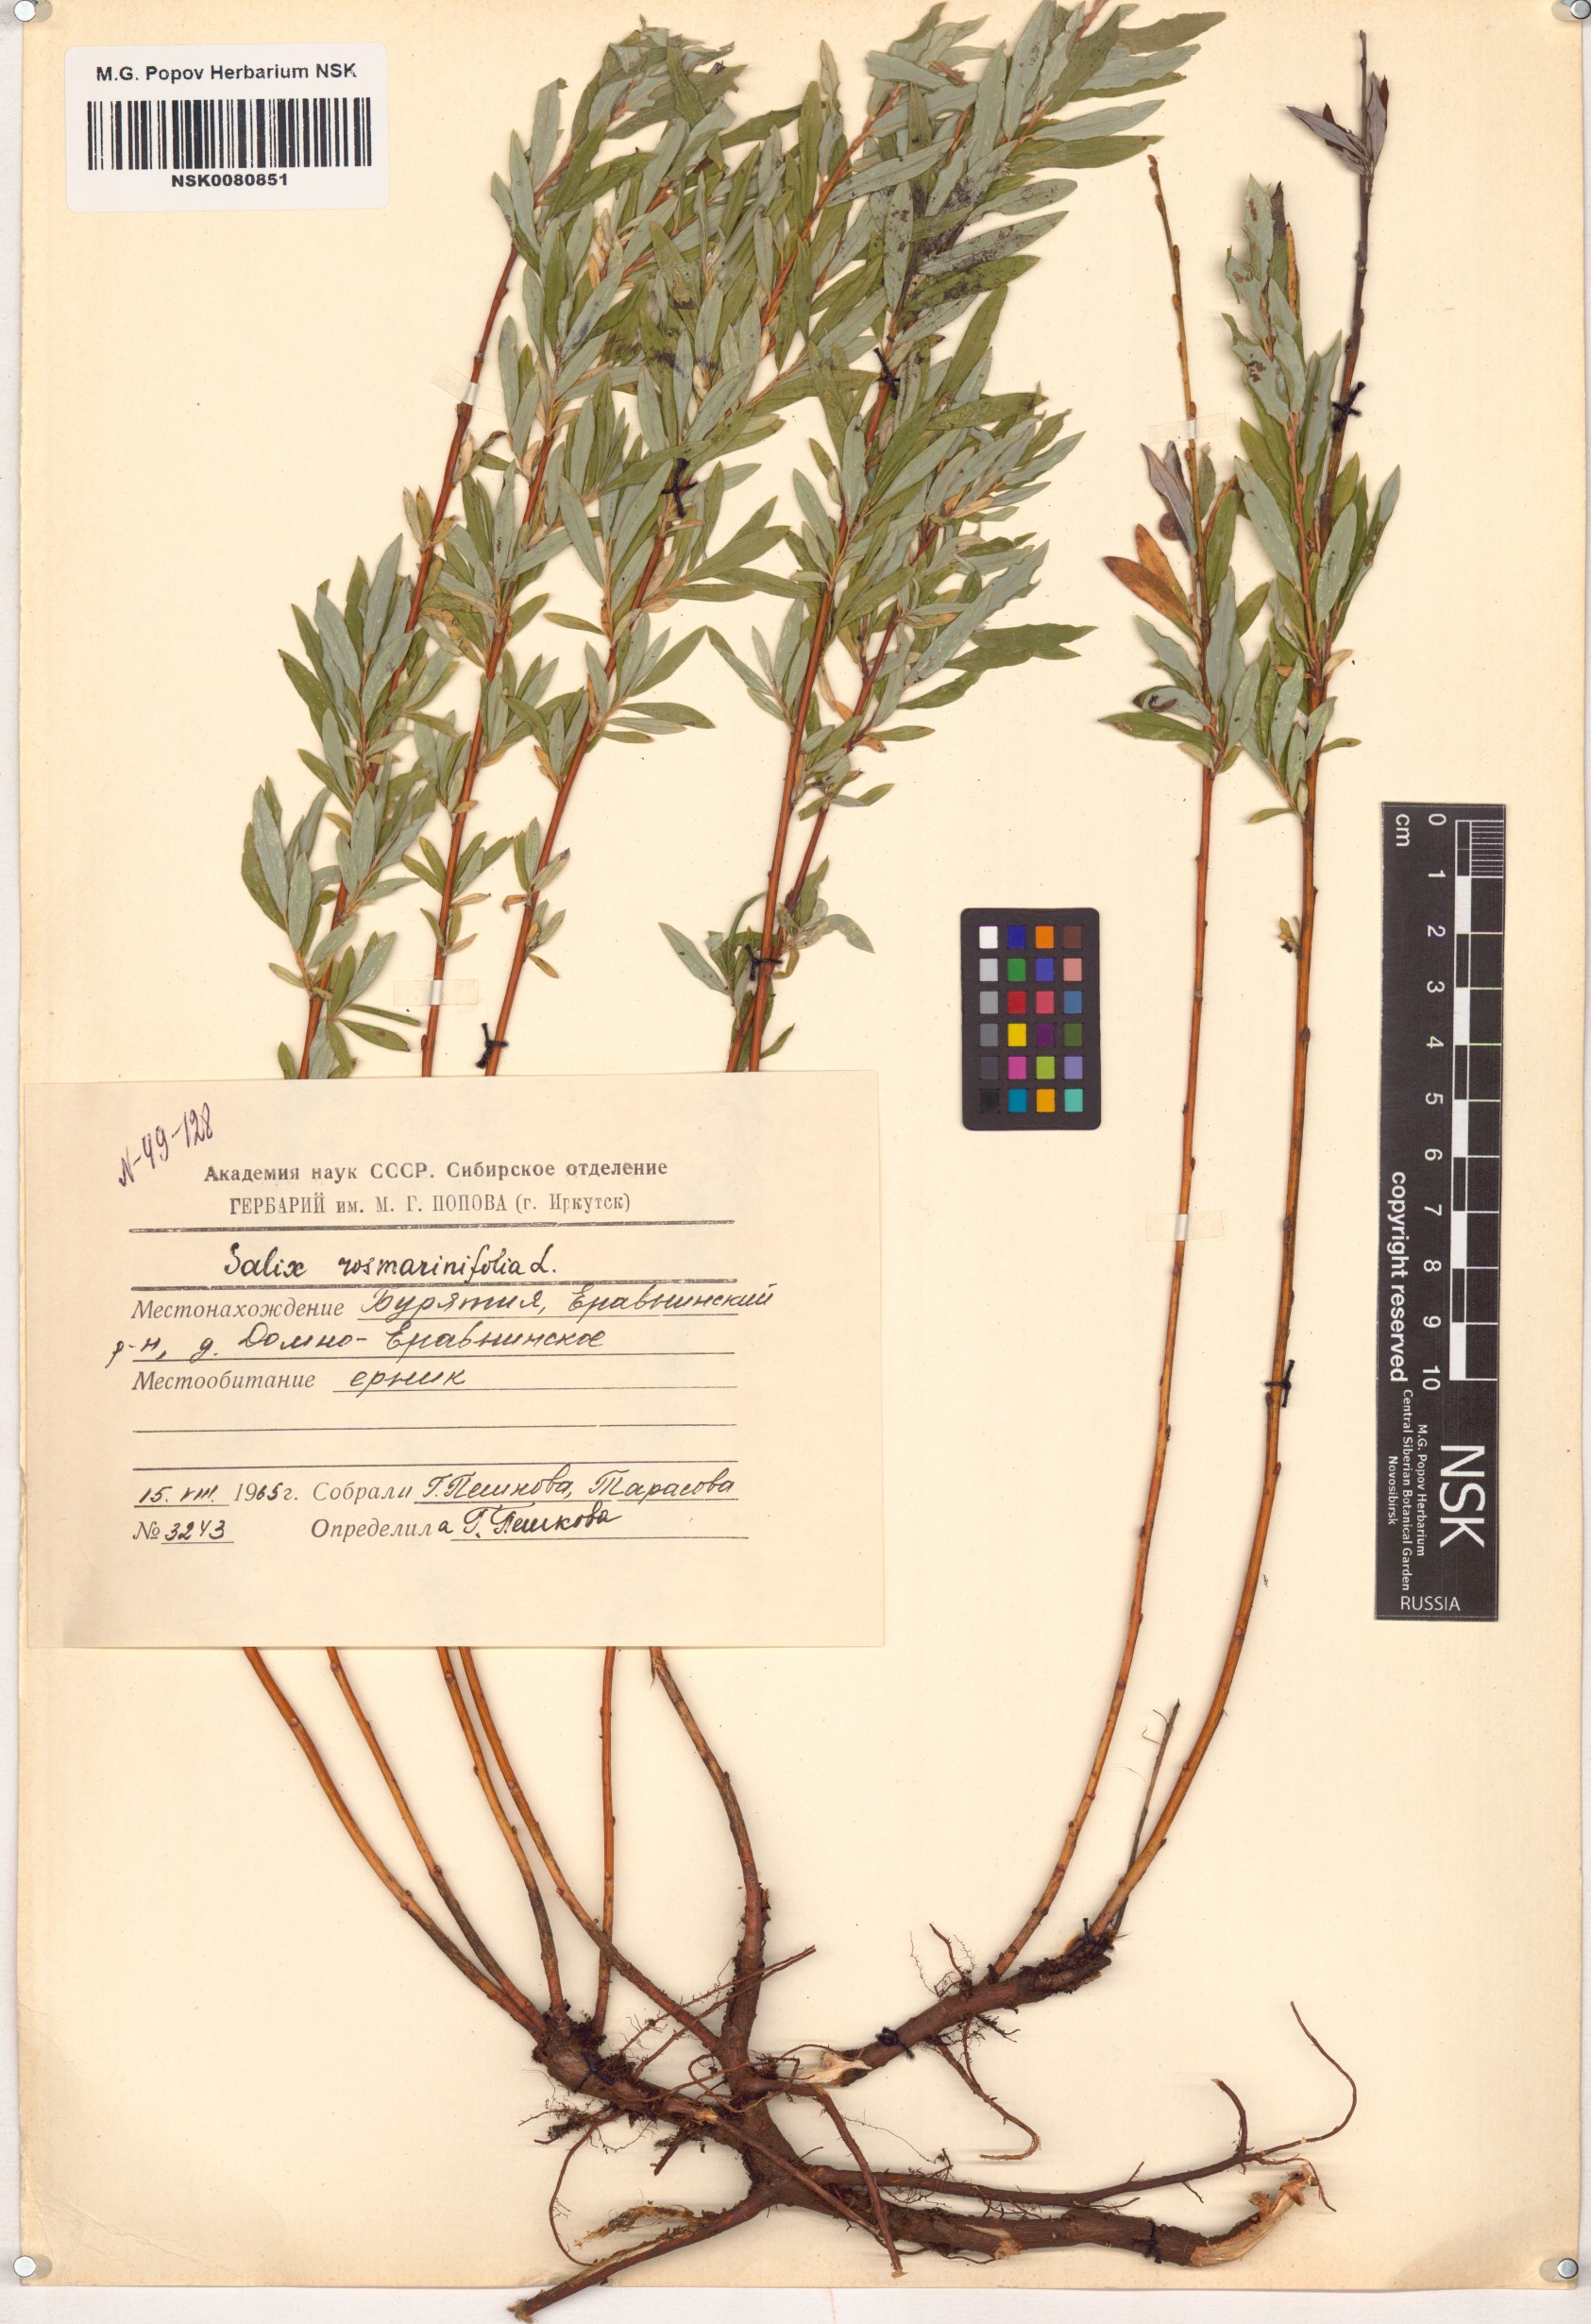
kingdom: Plantae
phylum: Tracheophyta
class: Magnoliopsida
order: Malpighiales
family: Salicaceae
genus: Salix
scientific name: Salix rosmarinifolia
